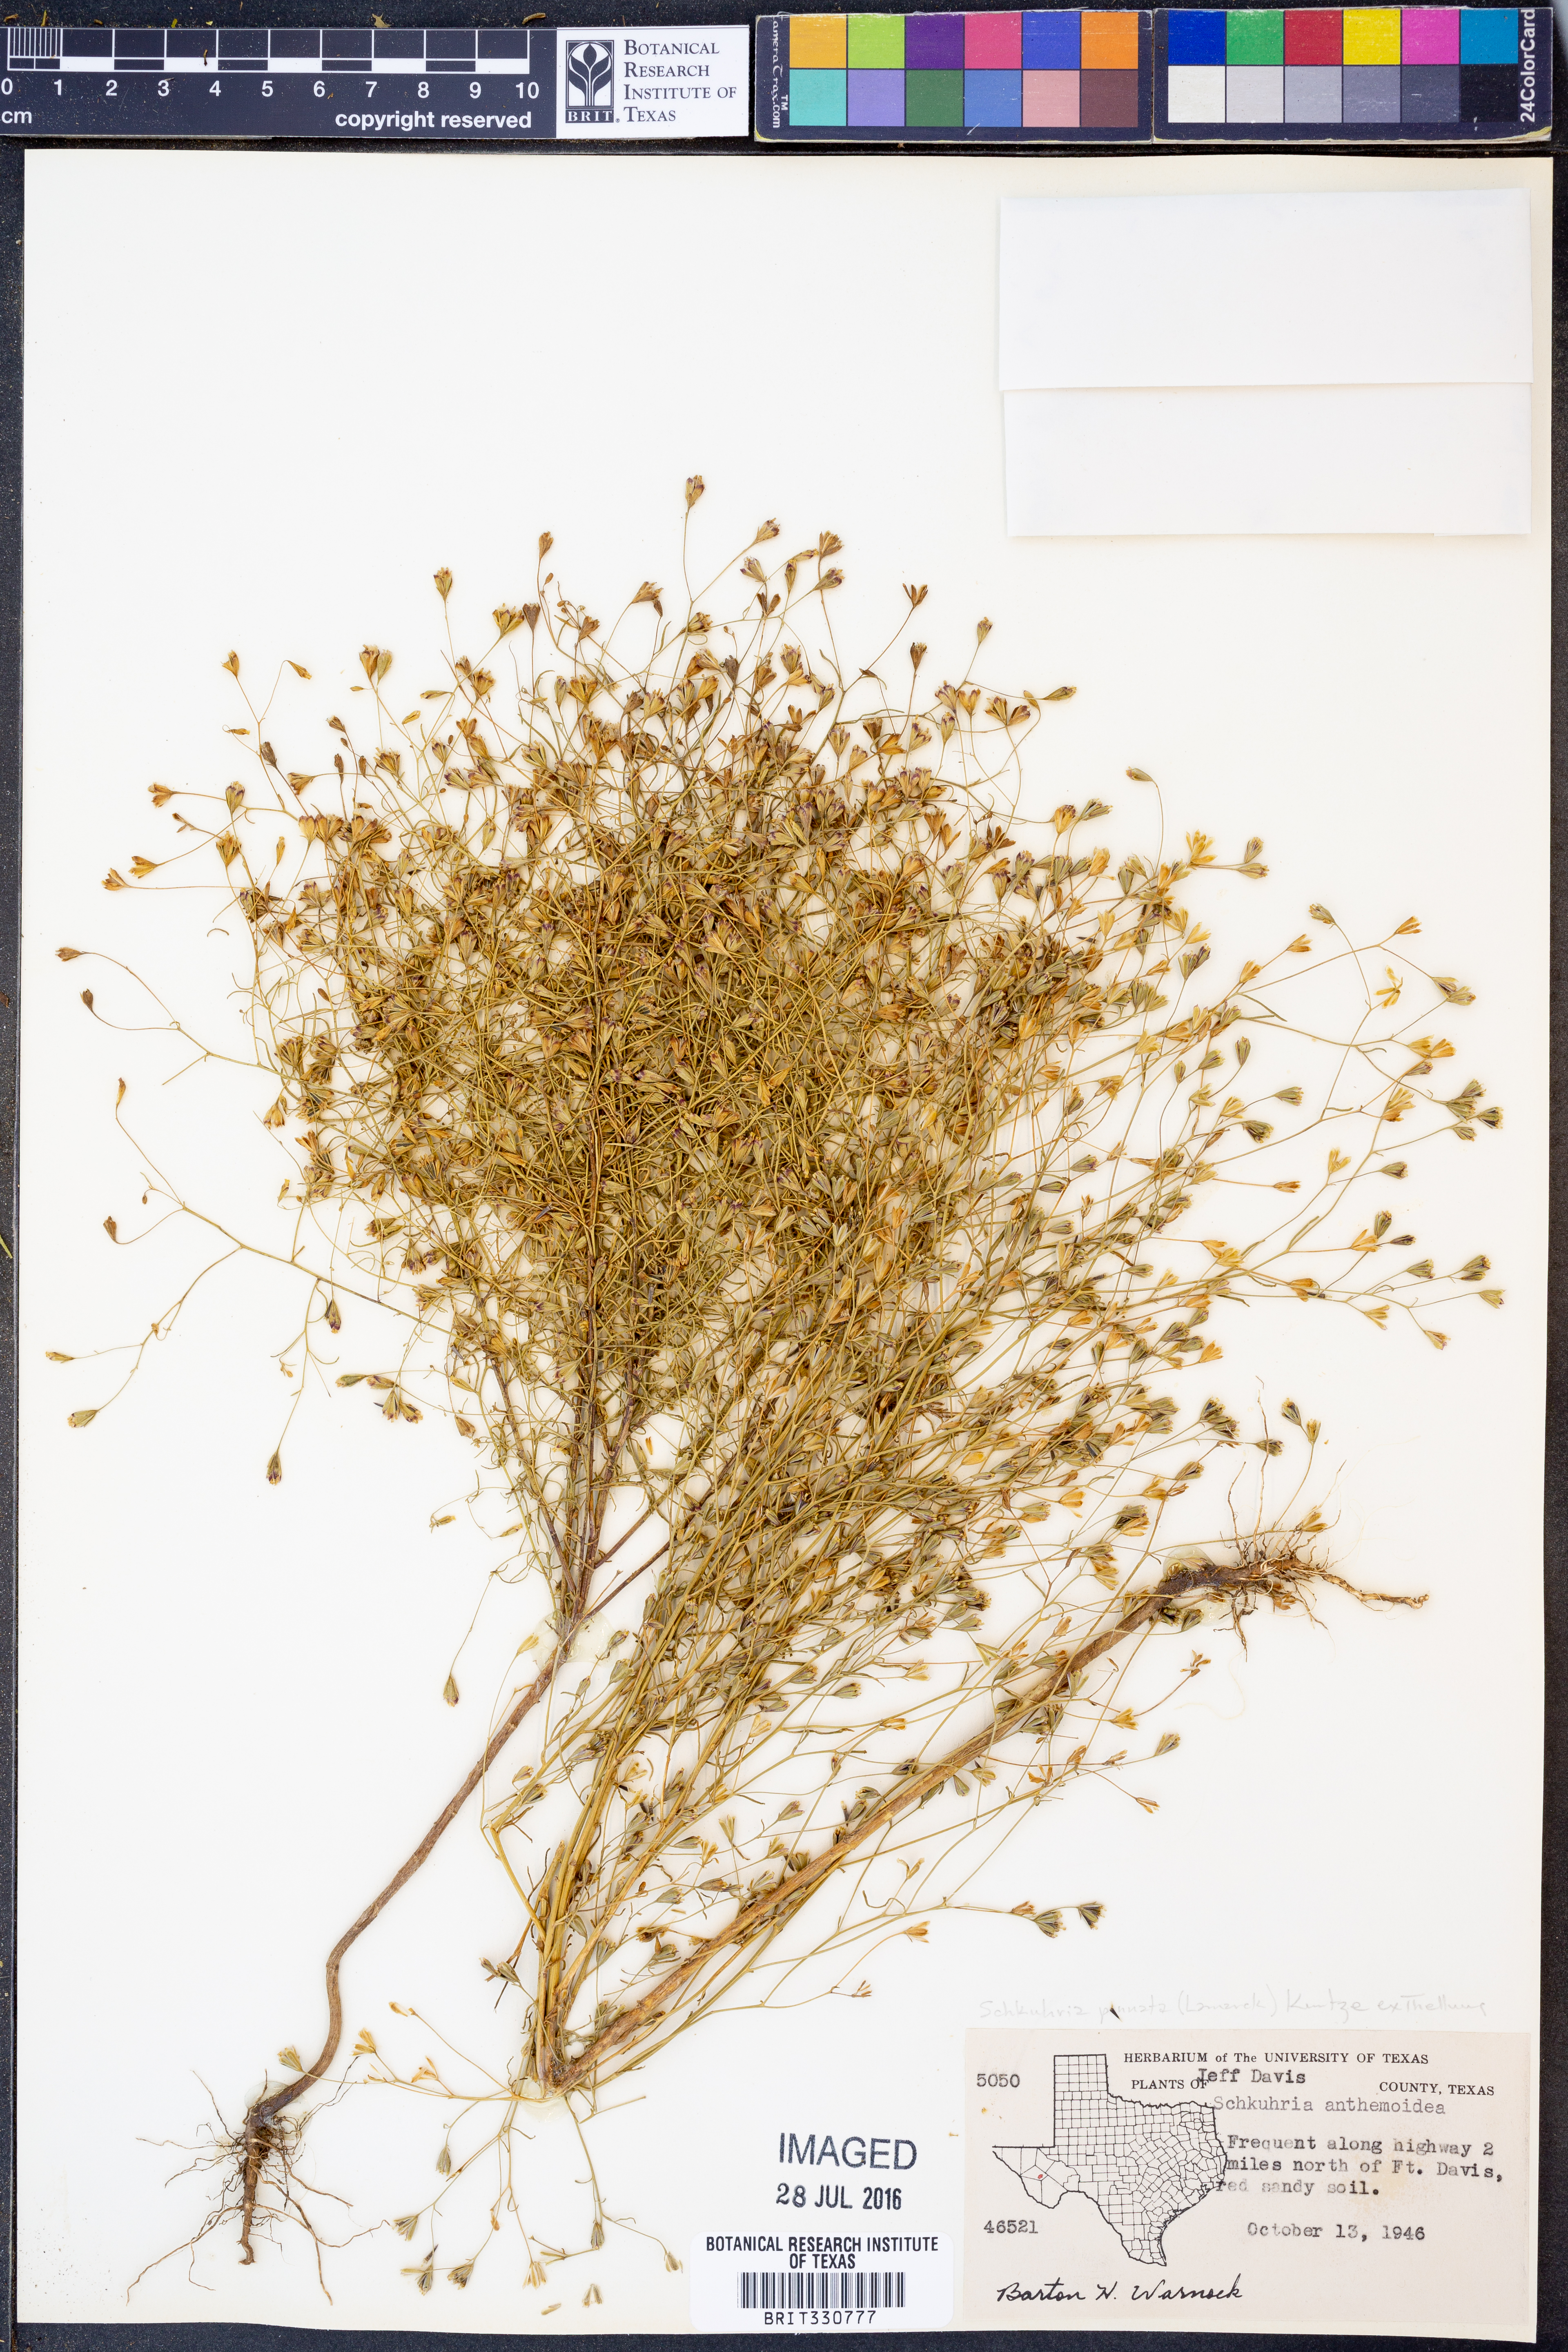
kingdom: Plantae
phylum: Tracheophyta
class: Magnoliopsida
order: Asterales
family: Asteraceae
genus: Schkuhria
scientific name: Schkuhria pinnata
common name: Dwarf marigold
